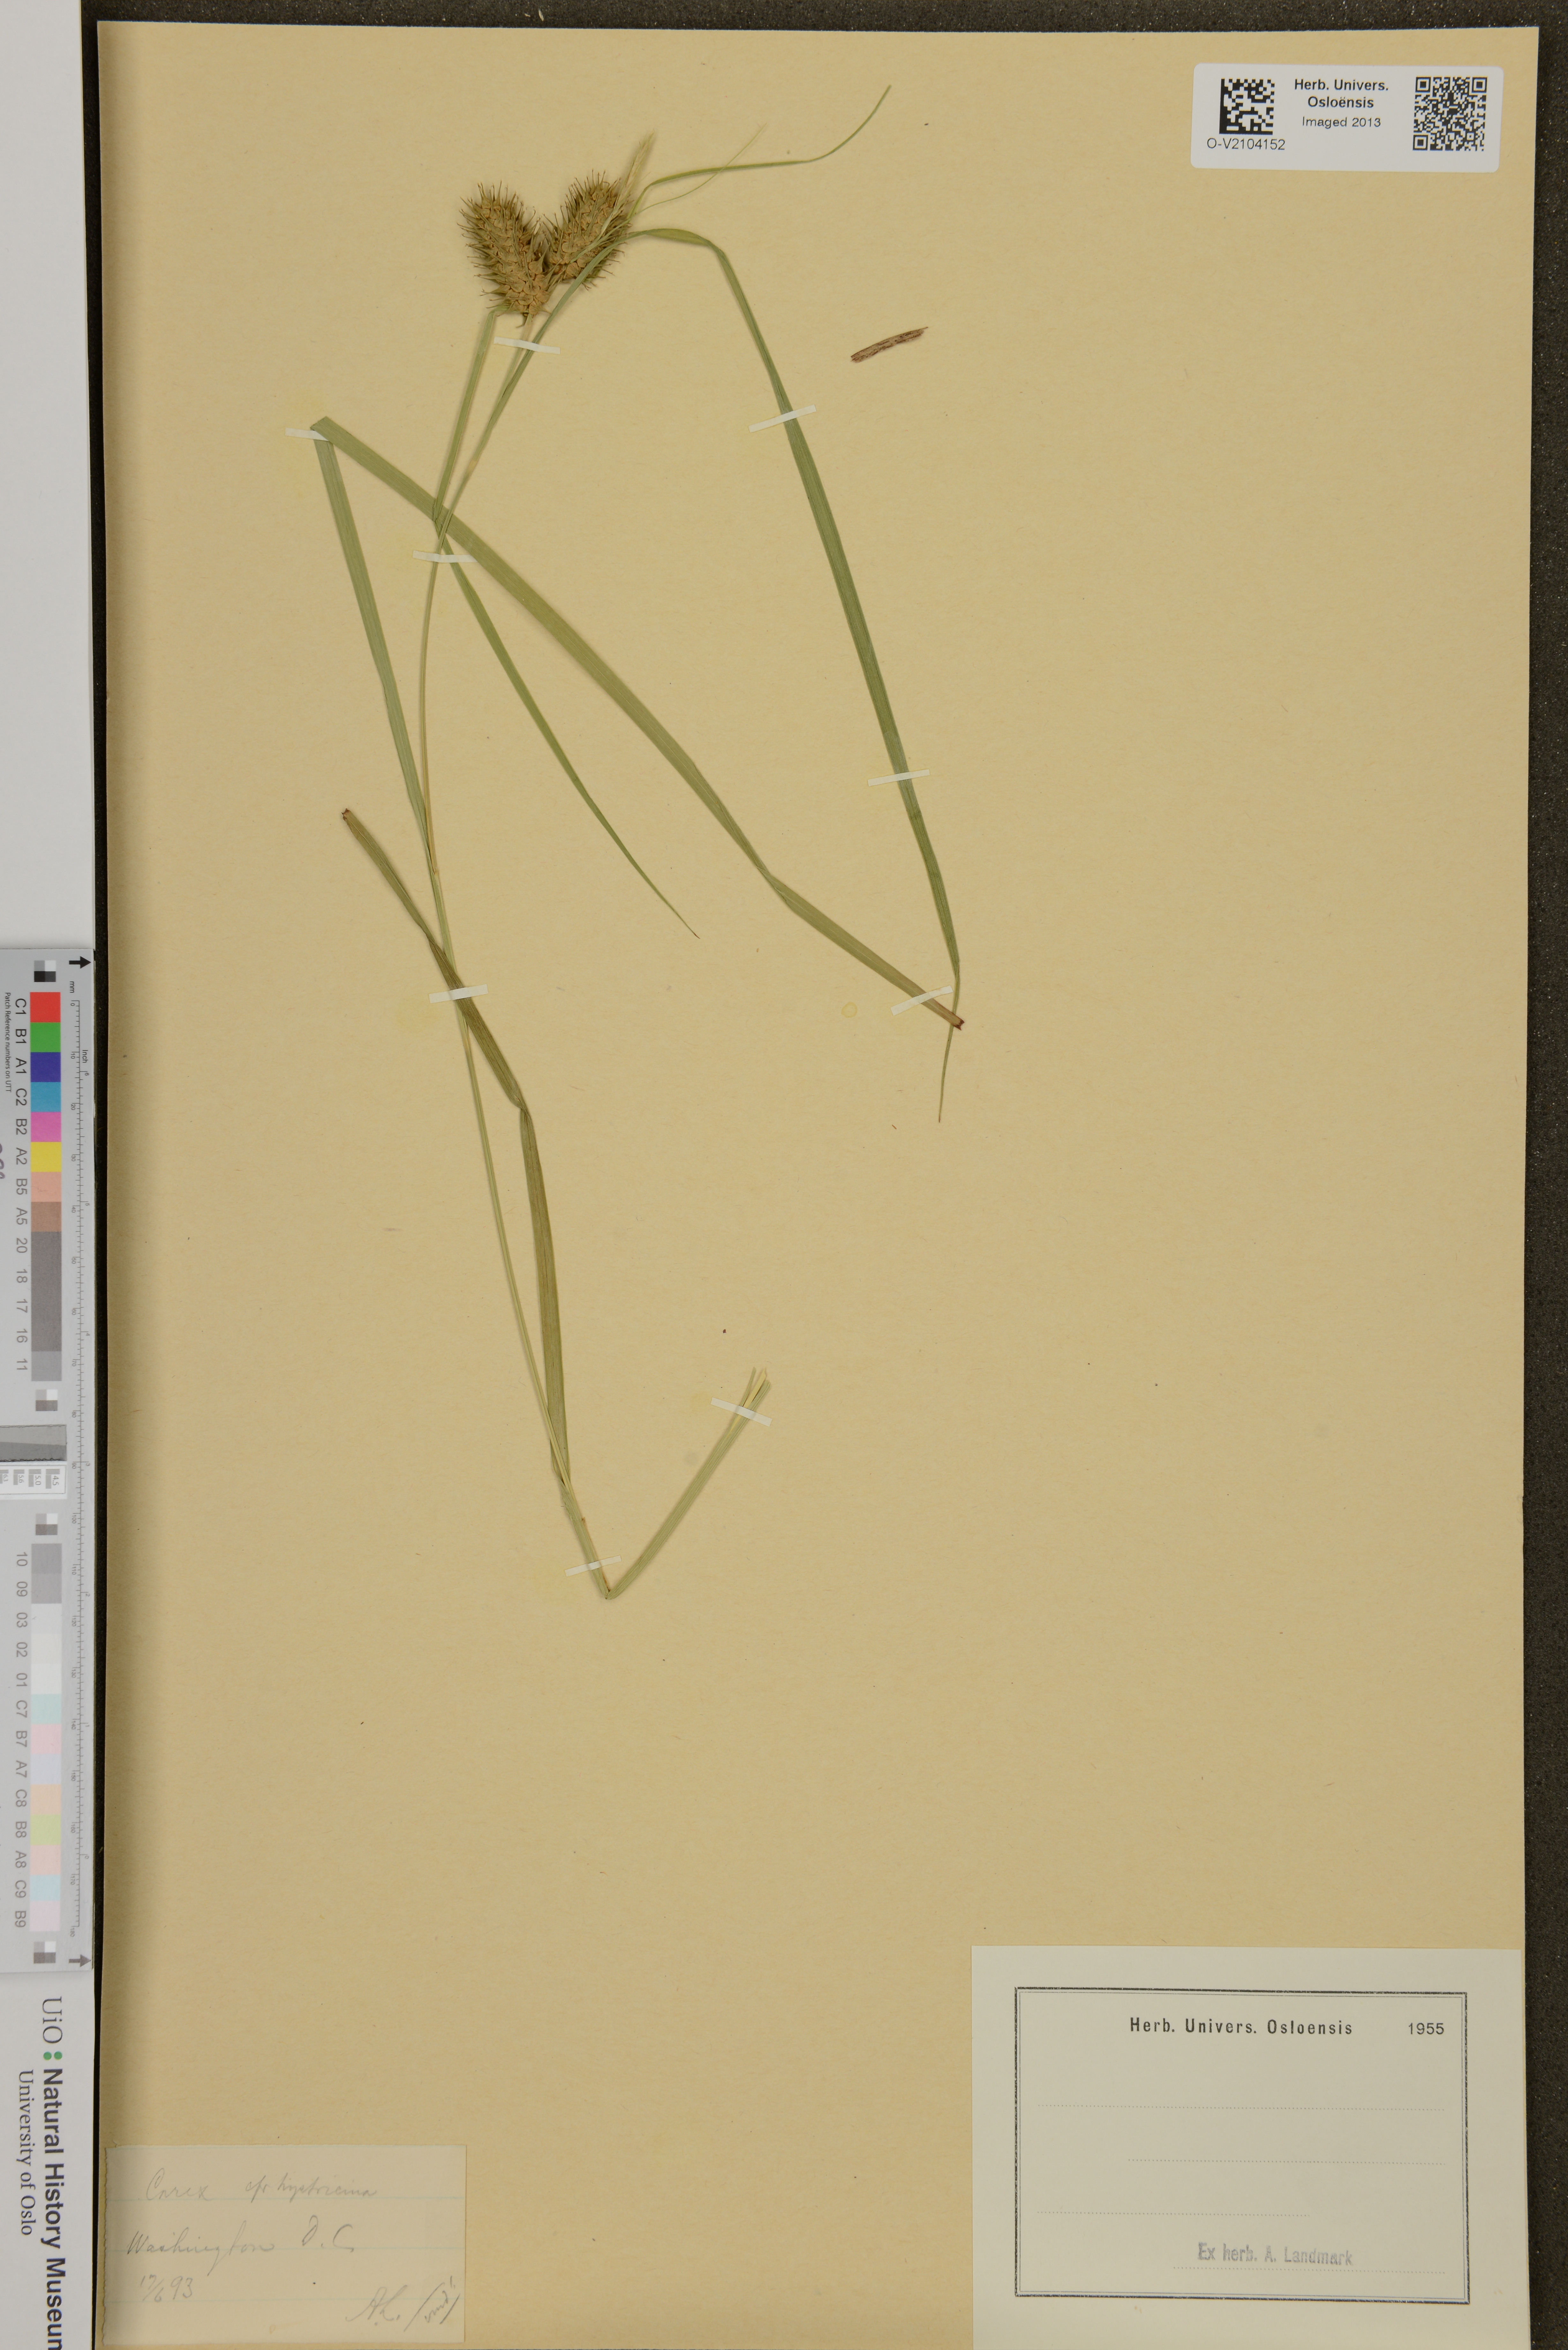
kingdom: Plantae
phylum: Tracheophyta
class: Liliopsida
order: Poales
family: Cyperaceae
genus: Carex
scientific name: Carex hystericina
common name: Bottlebrush sedge
